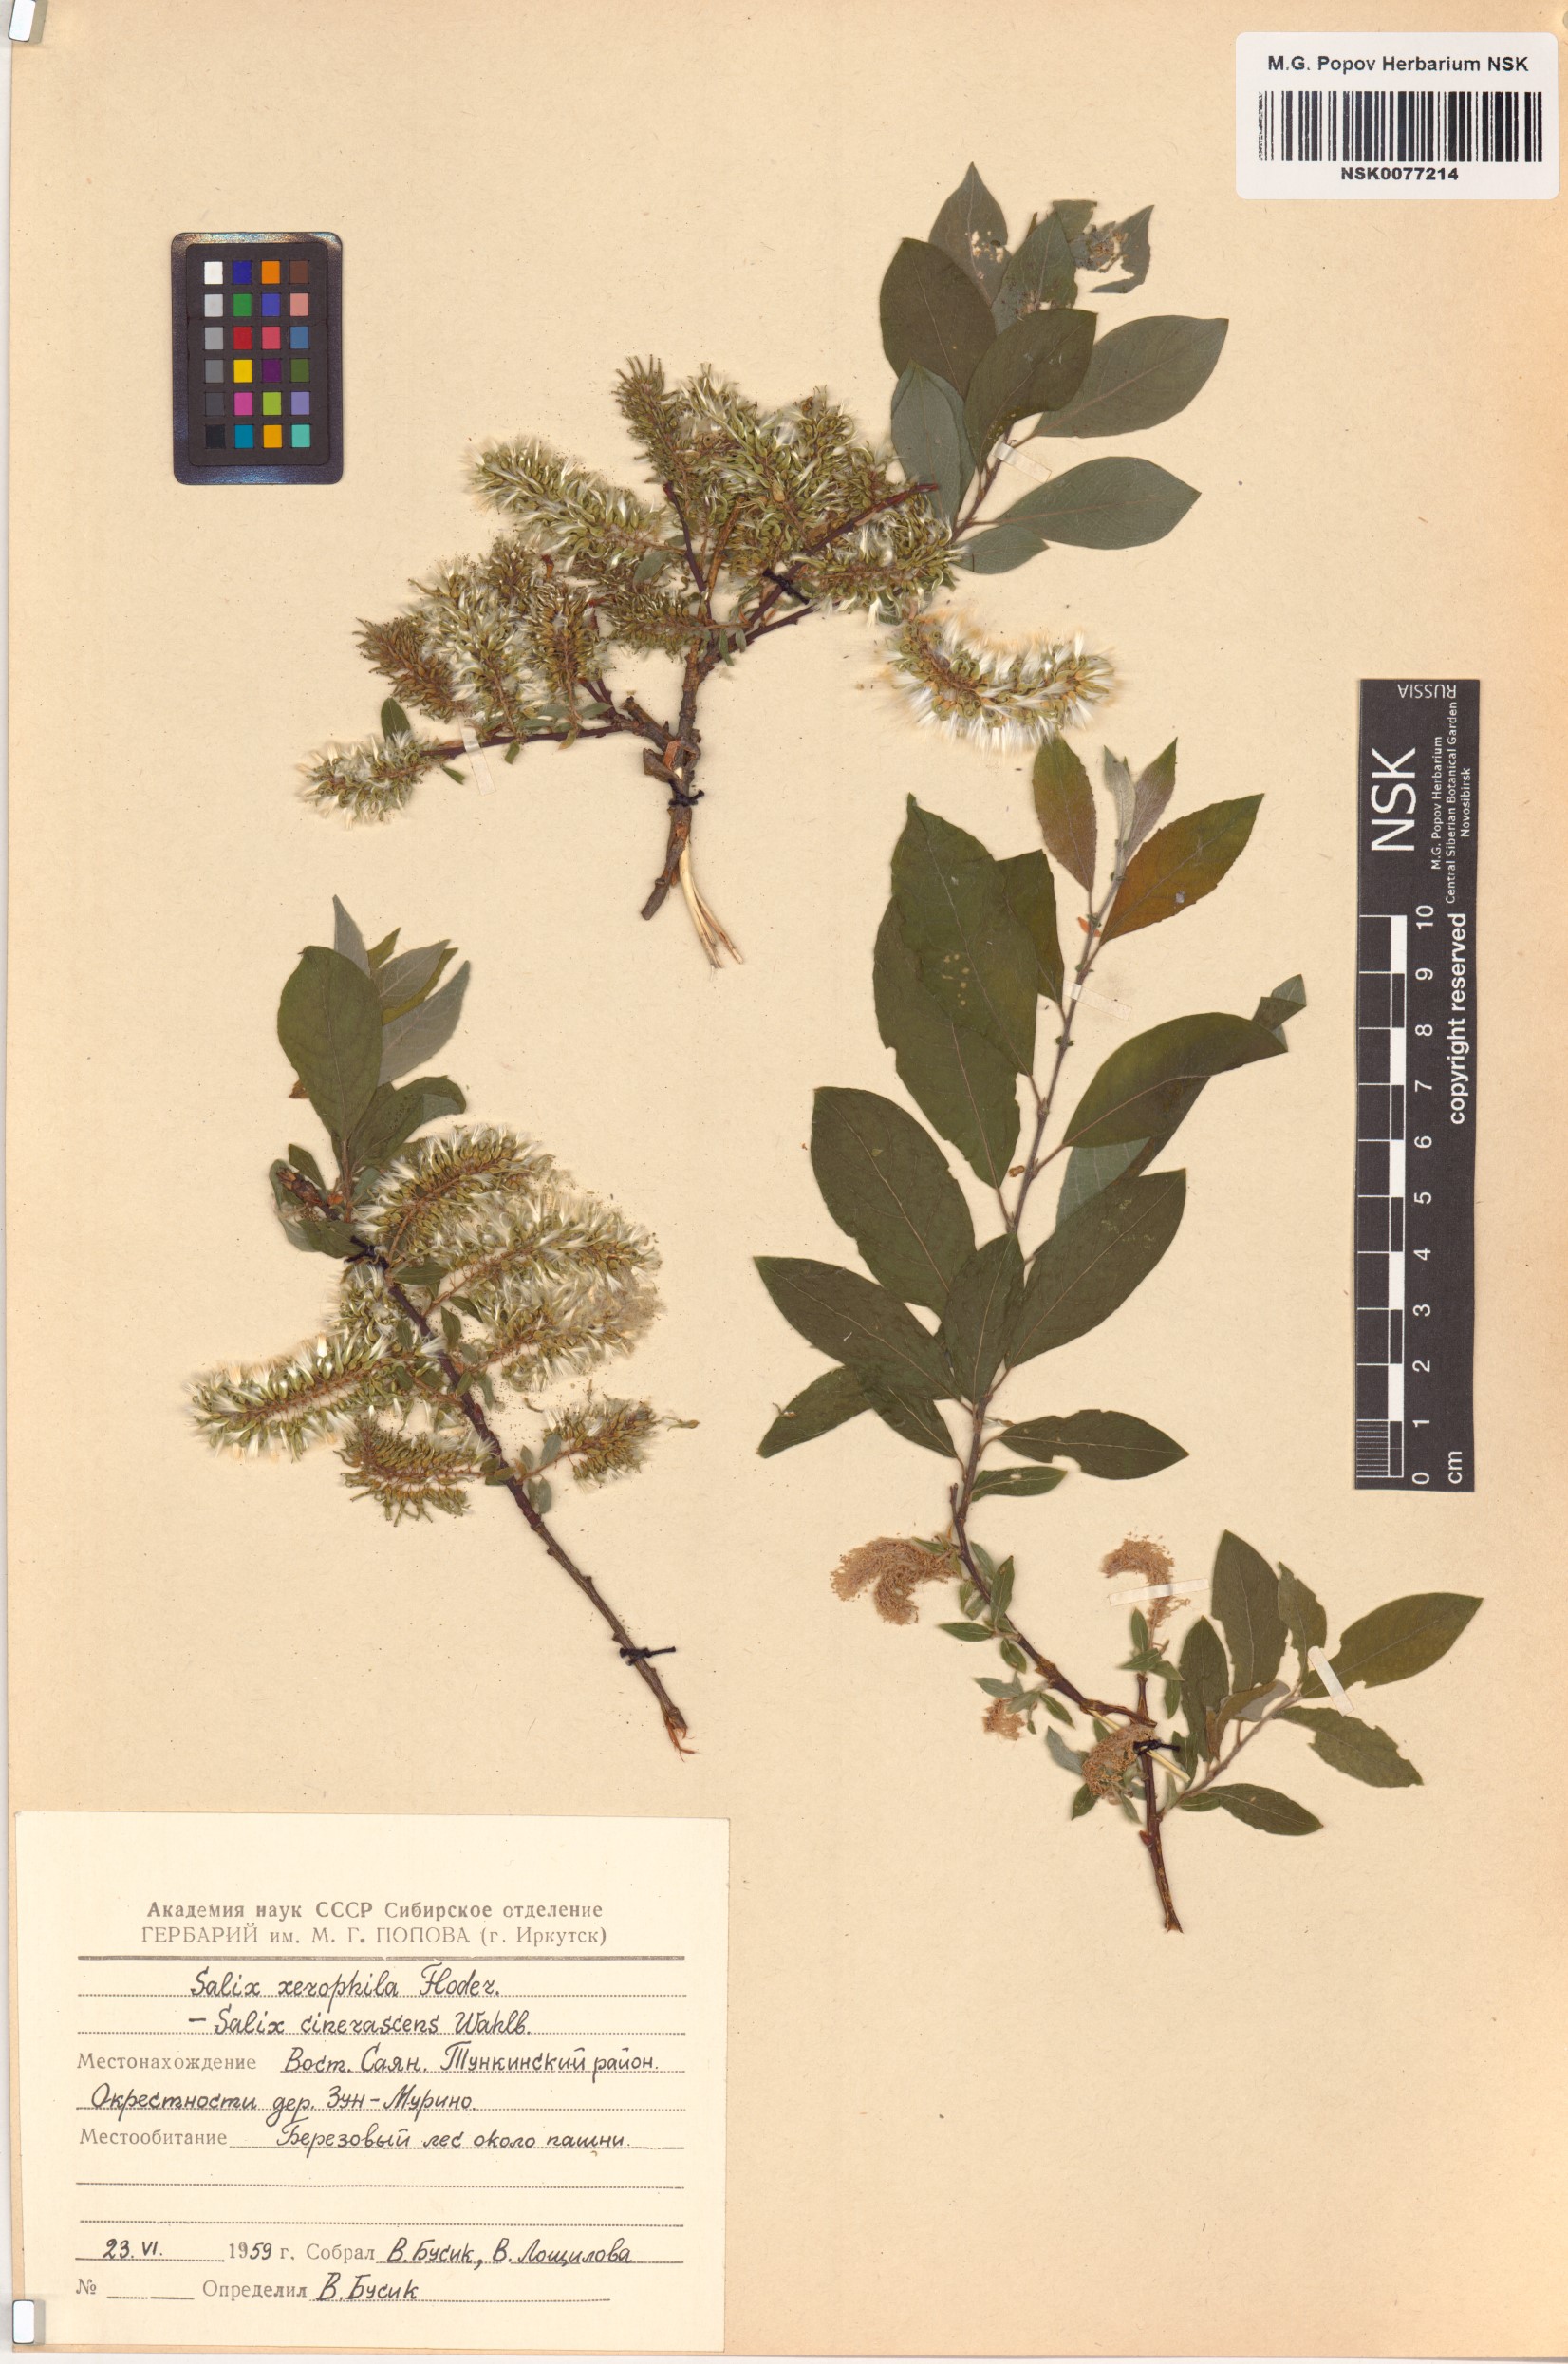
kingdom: Plantae
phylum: Tracheophyta
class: Magnoliopsida
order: Malpighiales
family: Salicaceae
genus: Salix
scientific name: Salix bebbiana
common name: Bebb's willow
